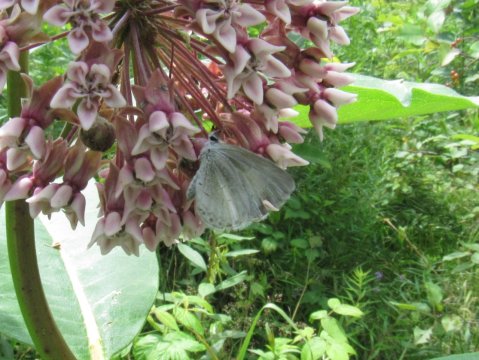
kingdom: Animalia
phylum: Arthropoda
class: Insecta
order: Lepidoptera
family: Lycaenidae
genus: Cyaniris
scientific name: Cyaniris neglecta
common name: Summer Azure
